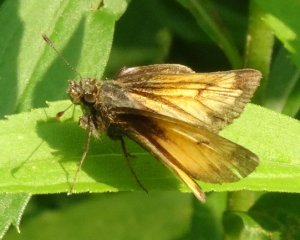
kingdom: Animalia
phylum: Arthropoda
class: Insecta
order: Lepidoptera
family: Hesperiidae
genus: Atrytone
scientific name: Atrytone delaware
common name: Delaware Skipper
